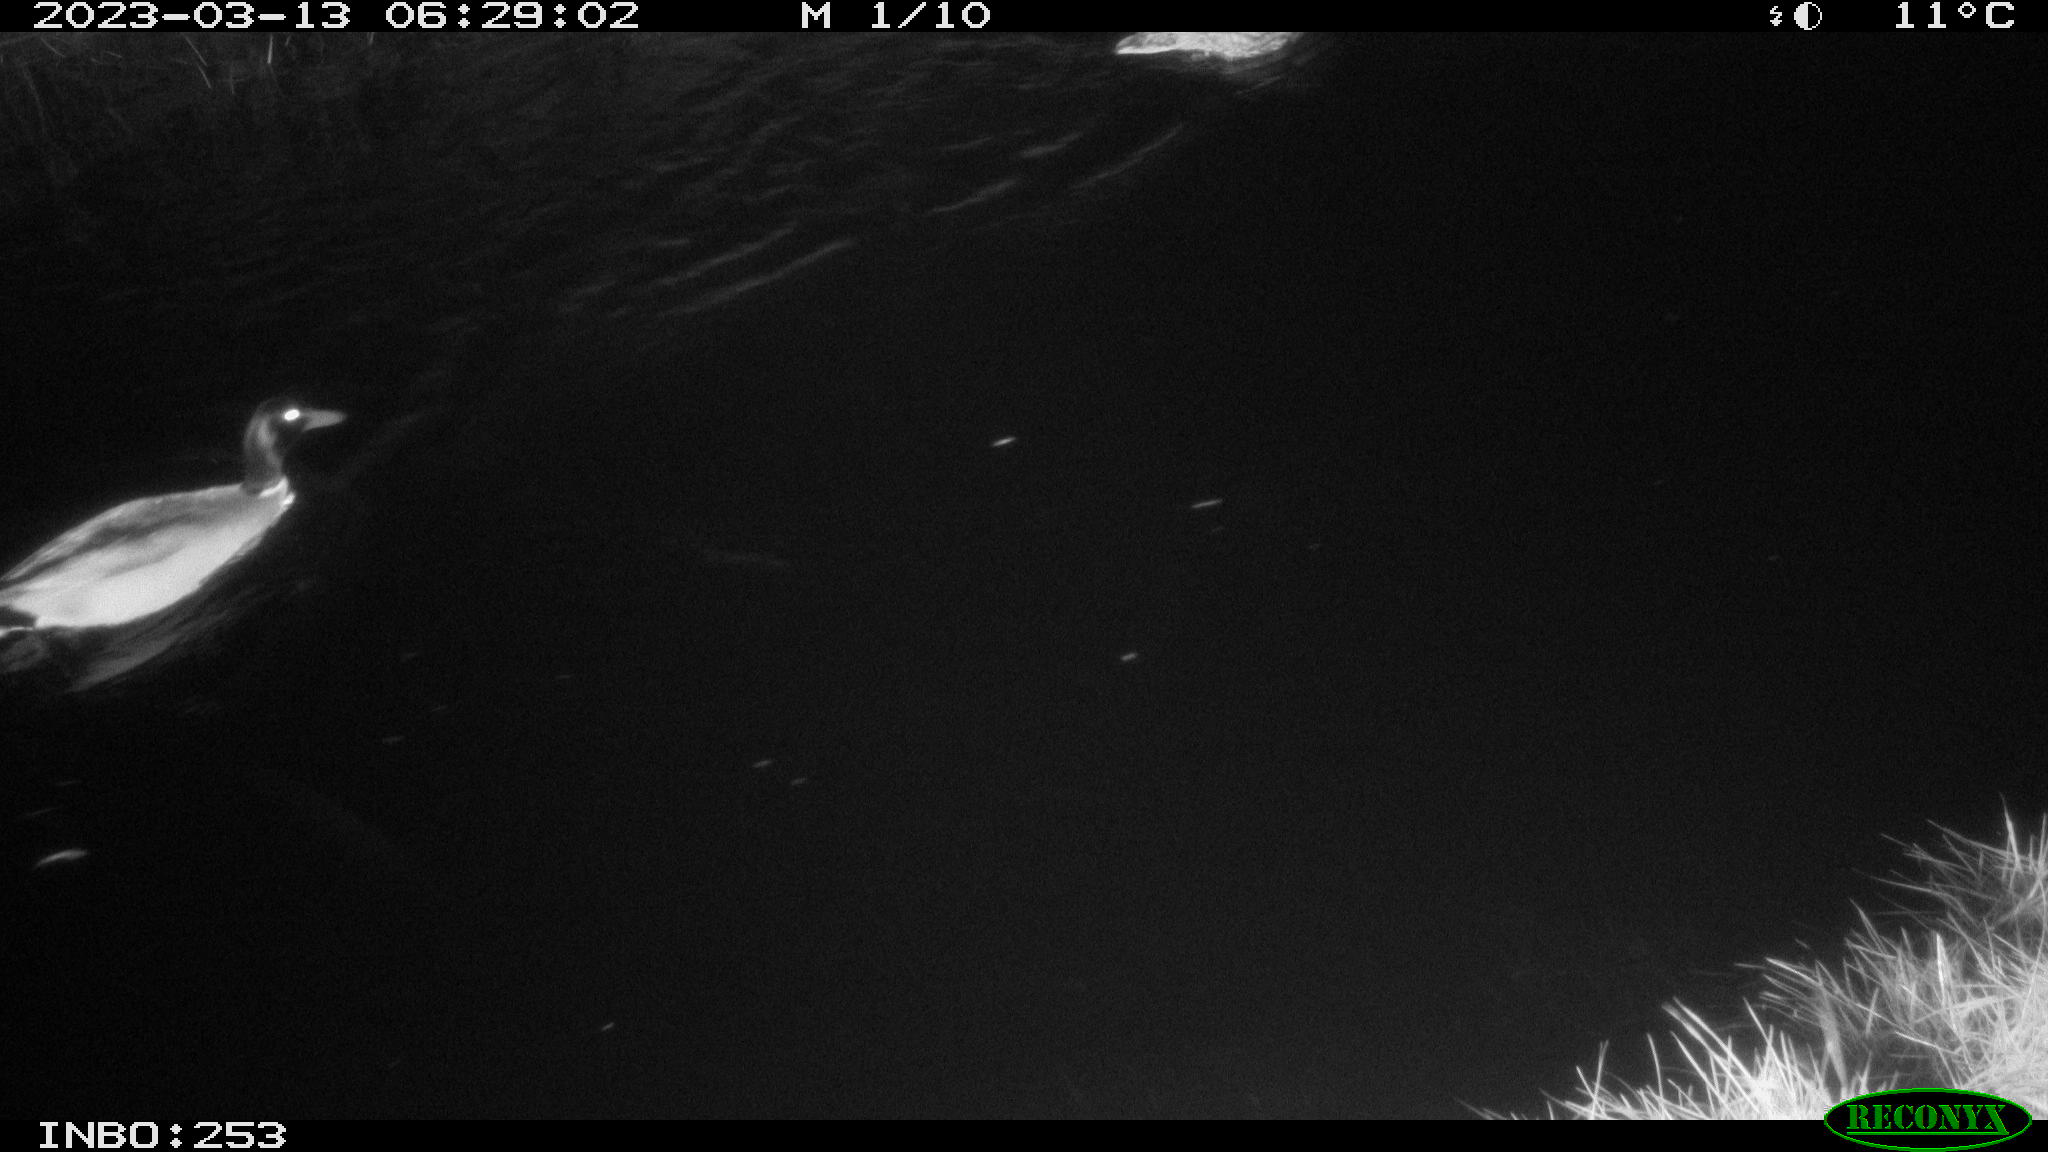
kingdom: Animalia
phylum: Chordata
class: Aves
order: Anseriformes
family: Anatidae
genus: Anas
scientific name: Anas
